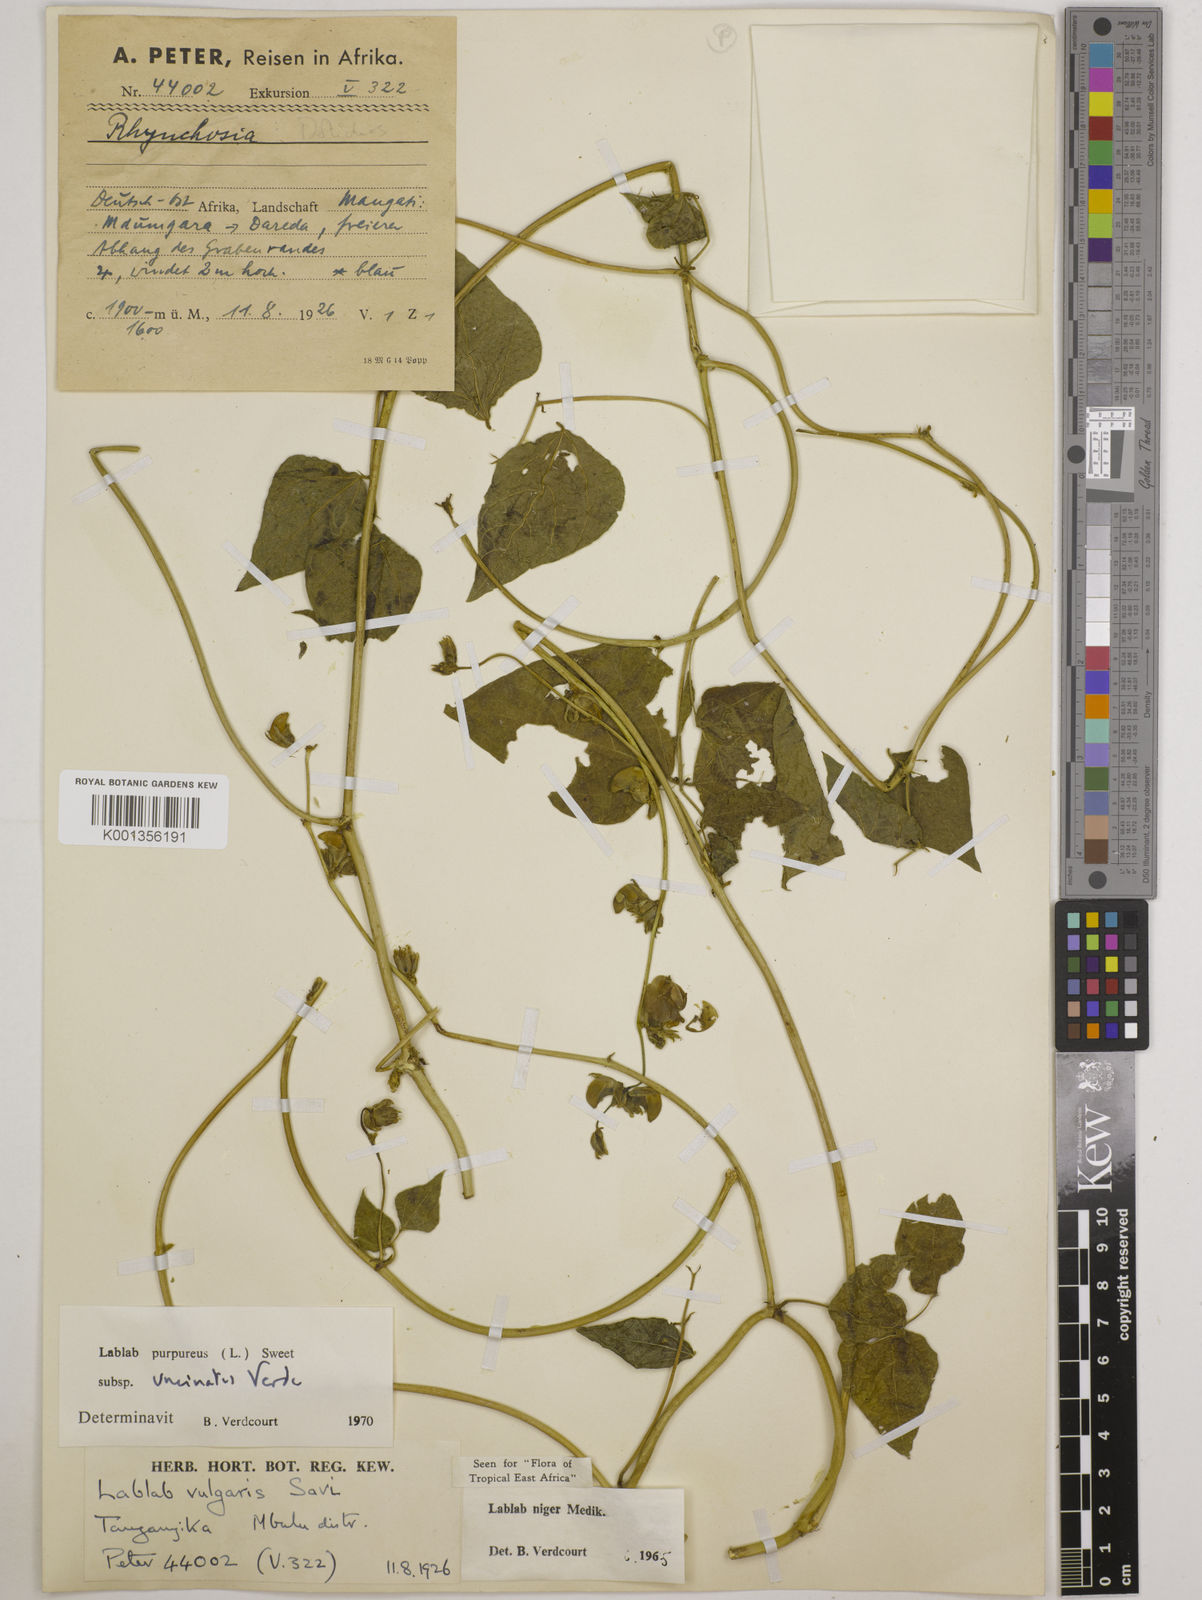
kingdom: Plantae
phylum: Tracheophyta
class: Magnoliopsida
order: Fabales
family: Fabaceae
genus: Lablab
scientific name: Lablab purpureus
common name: Lablab-bean
